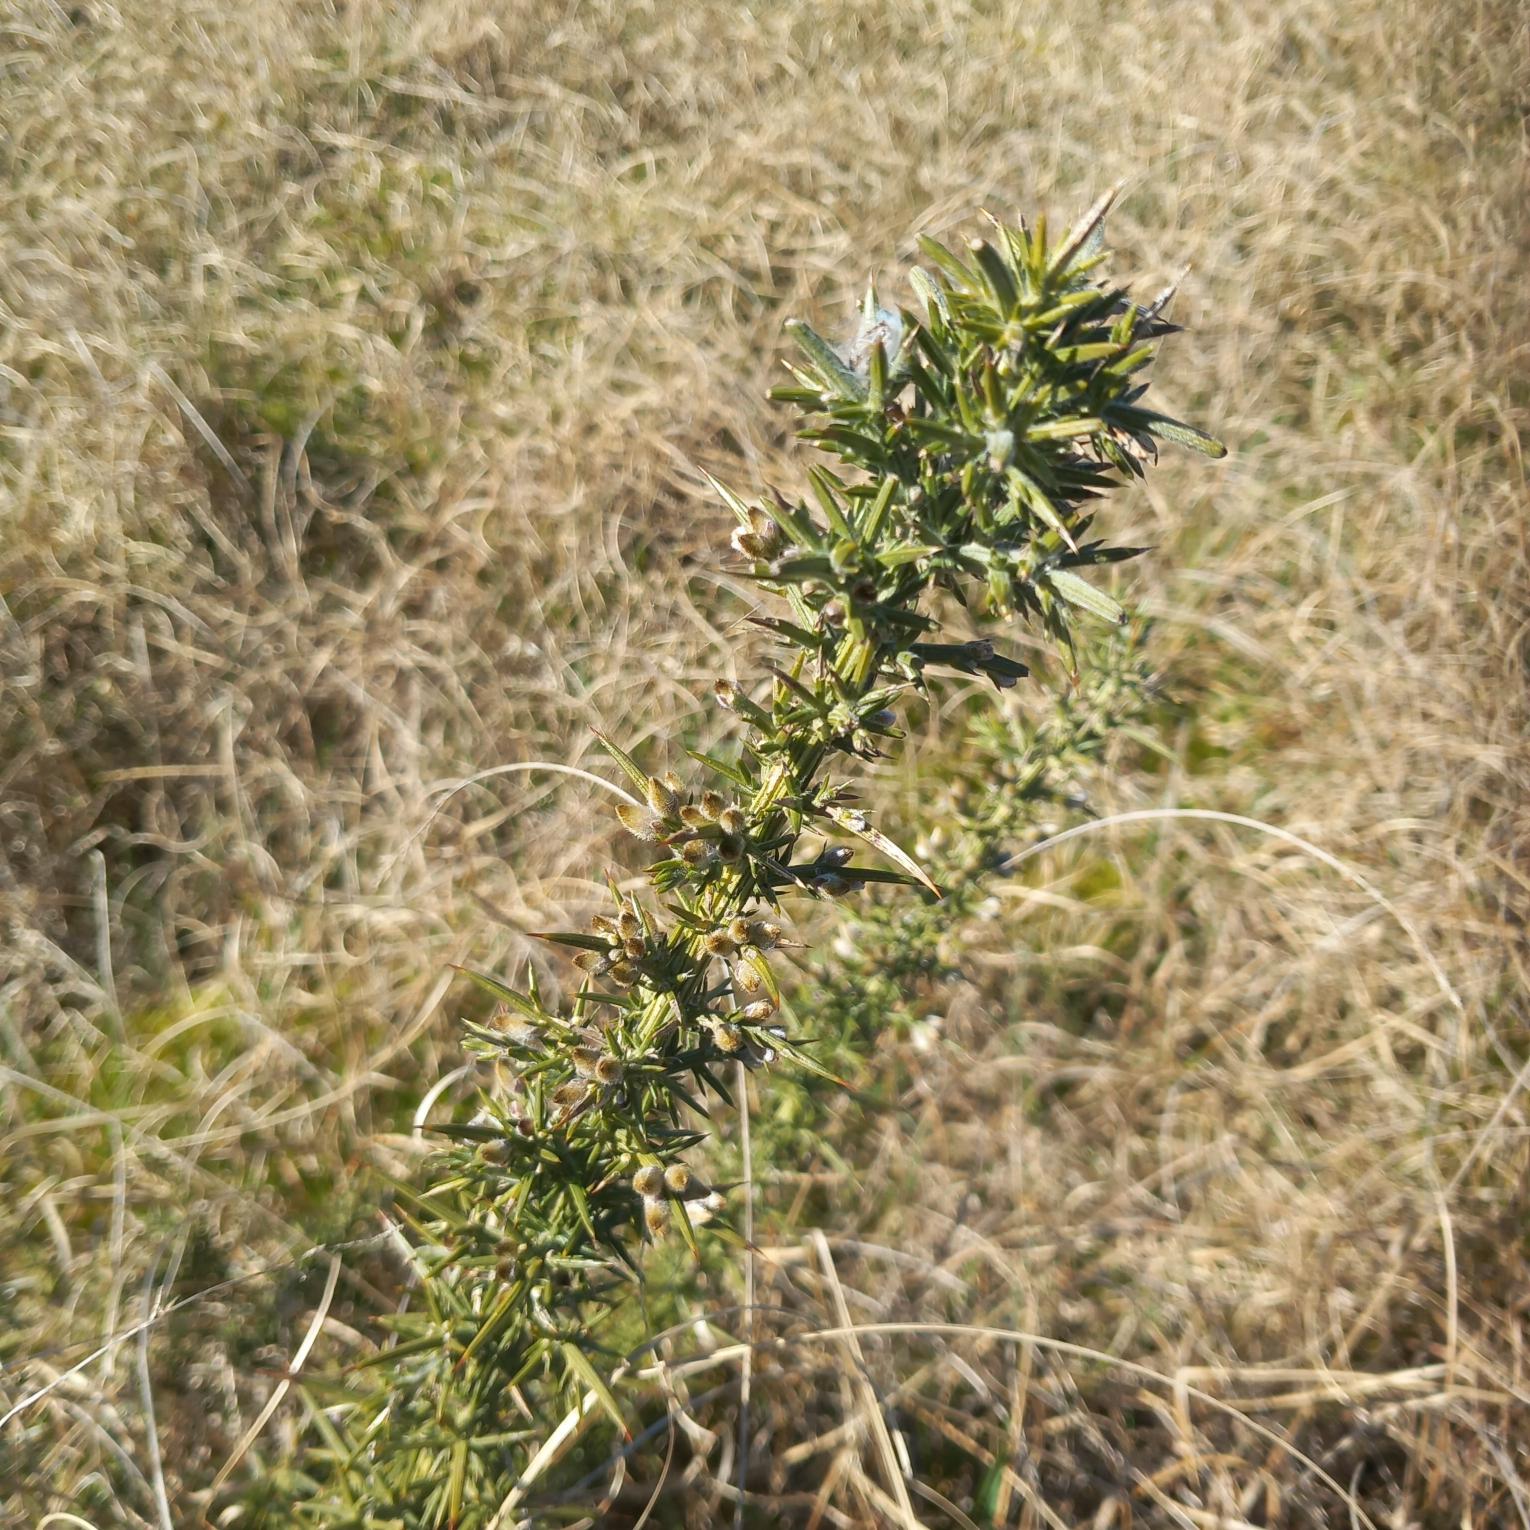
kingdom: Plantae
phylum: Tracheophyta
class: Magnoliopsida
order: Fabales
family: Fabaceae
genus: Ulex
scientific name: Ulex europaeus
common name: Tornblad
